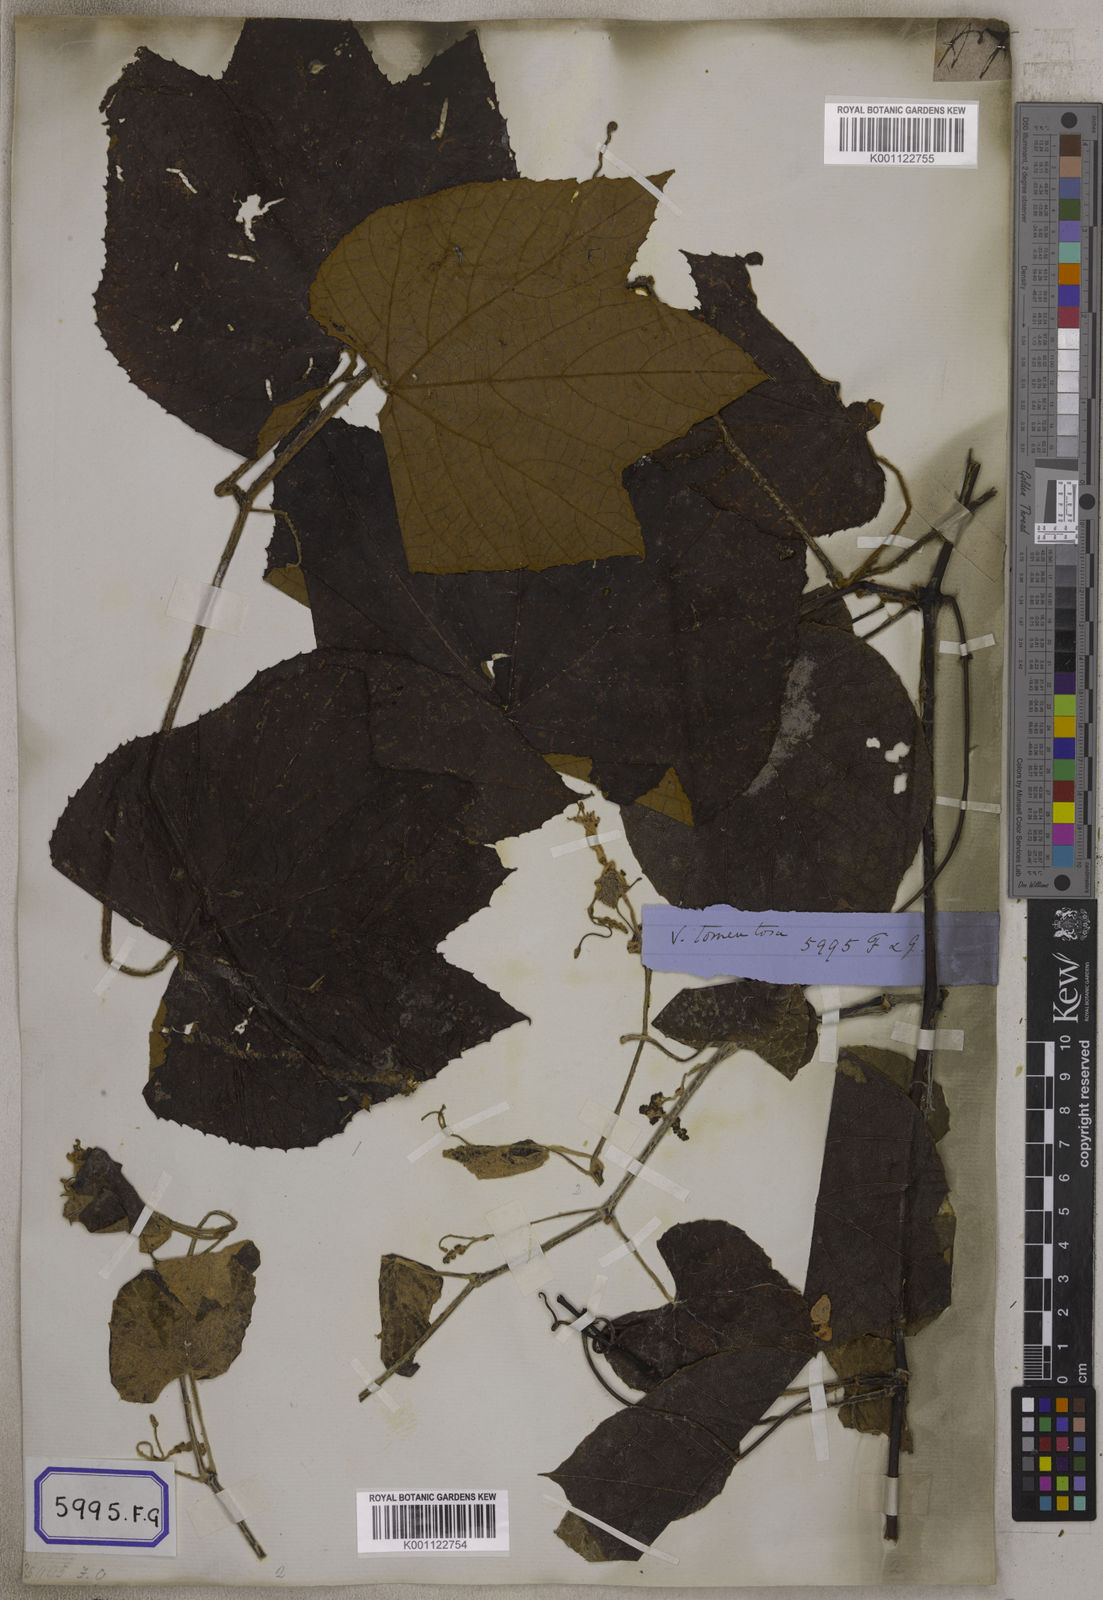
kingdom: Plantae
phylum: Tracheophyta
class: Magnoliopsida
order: Vitales
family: Vitaceae
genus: Vitis
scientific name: Vitis
